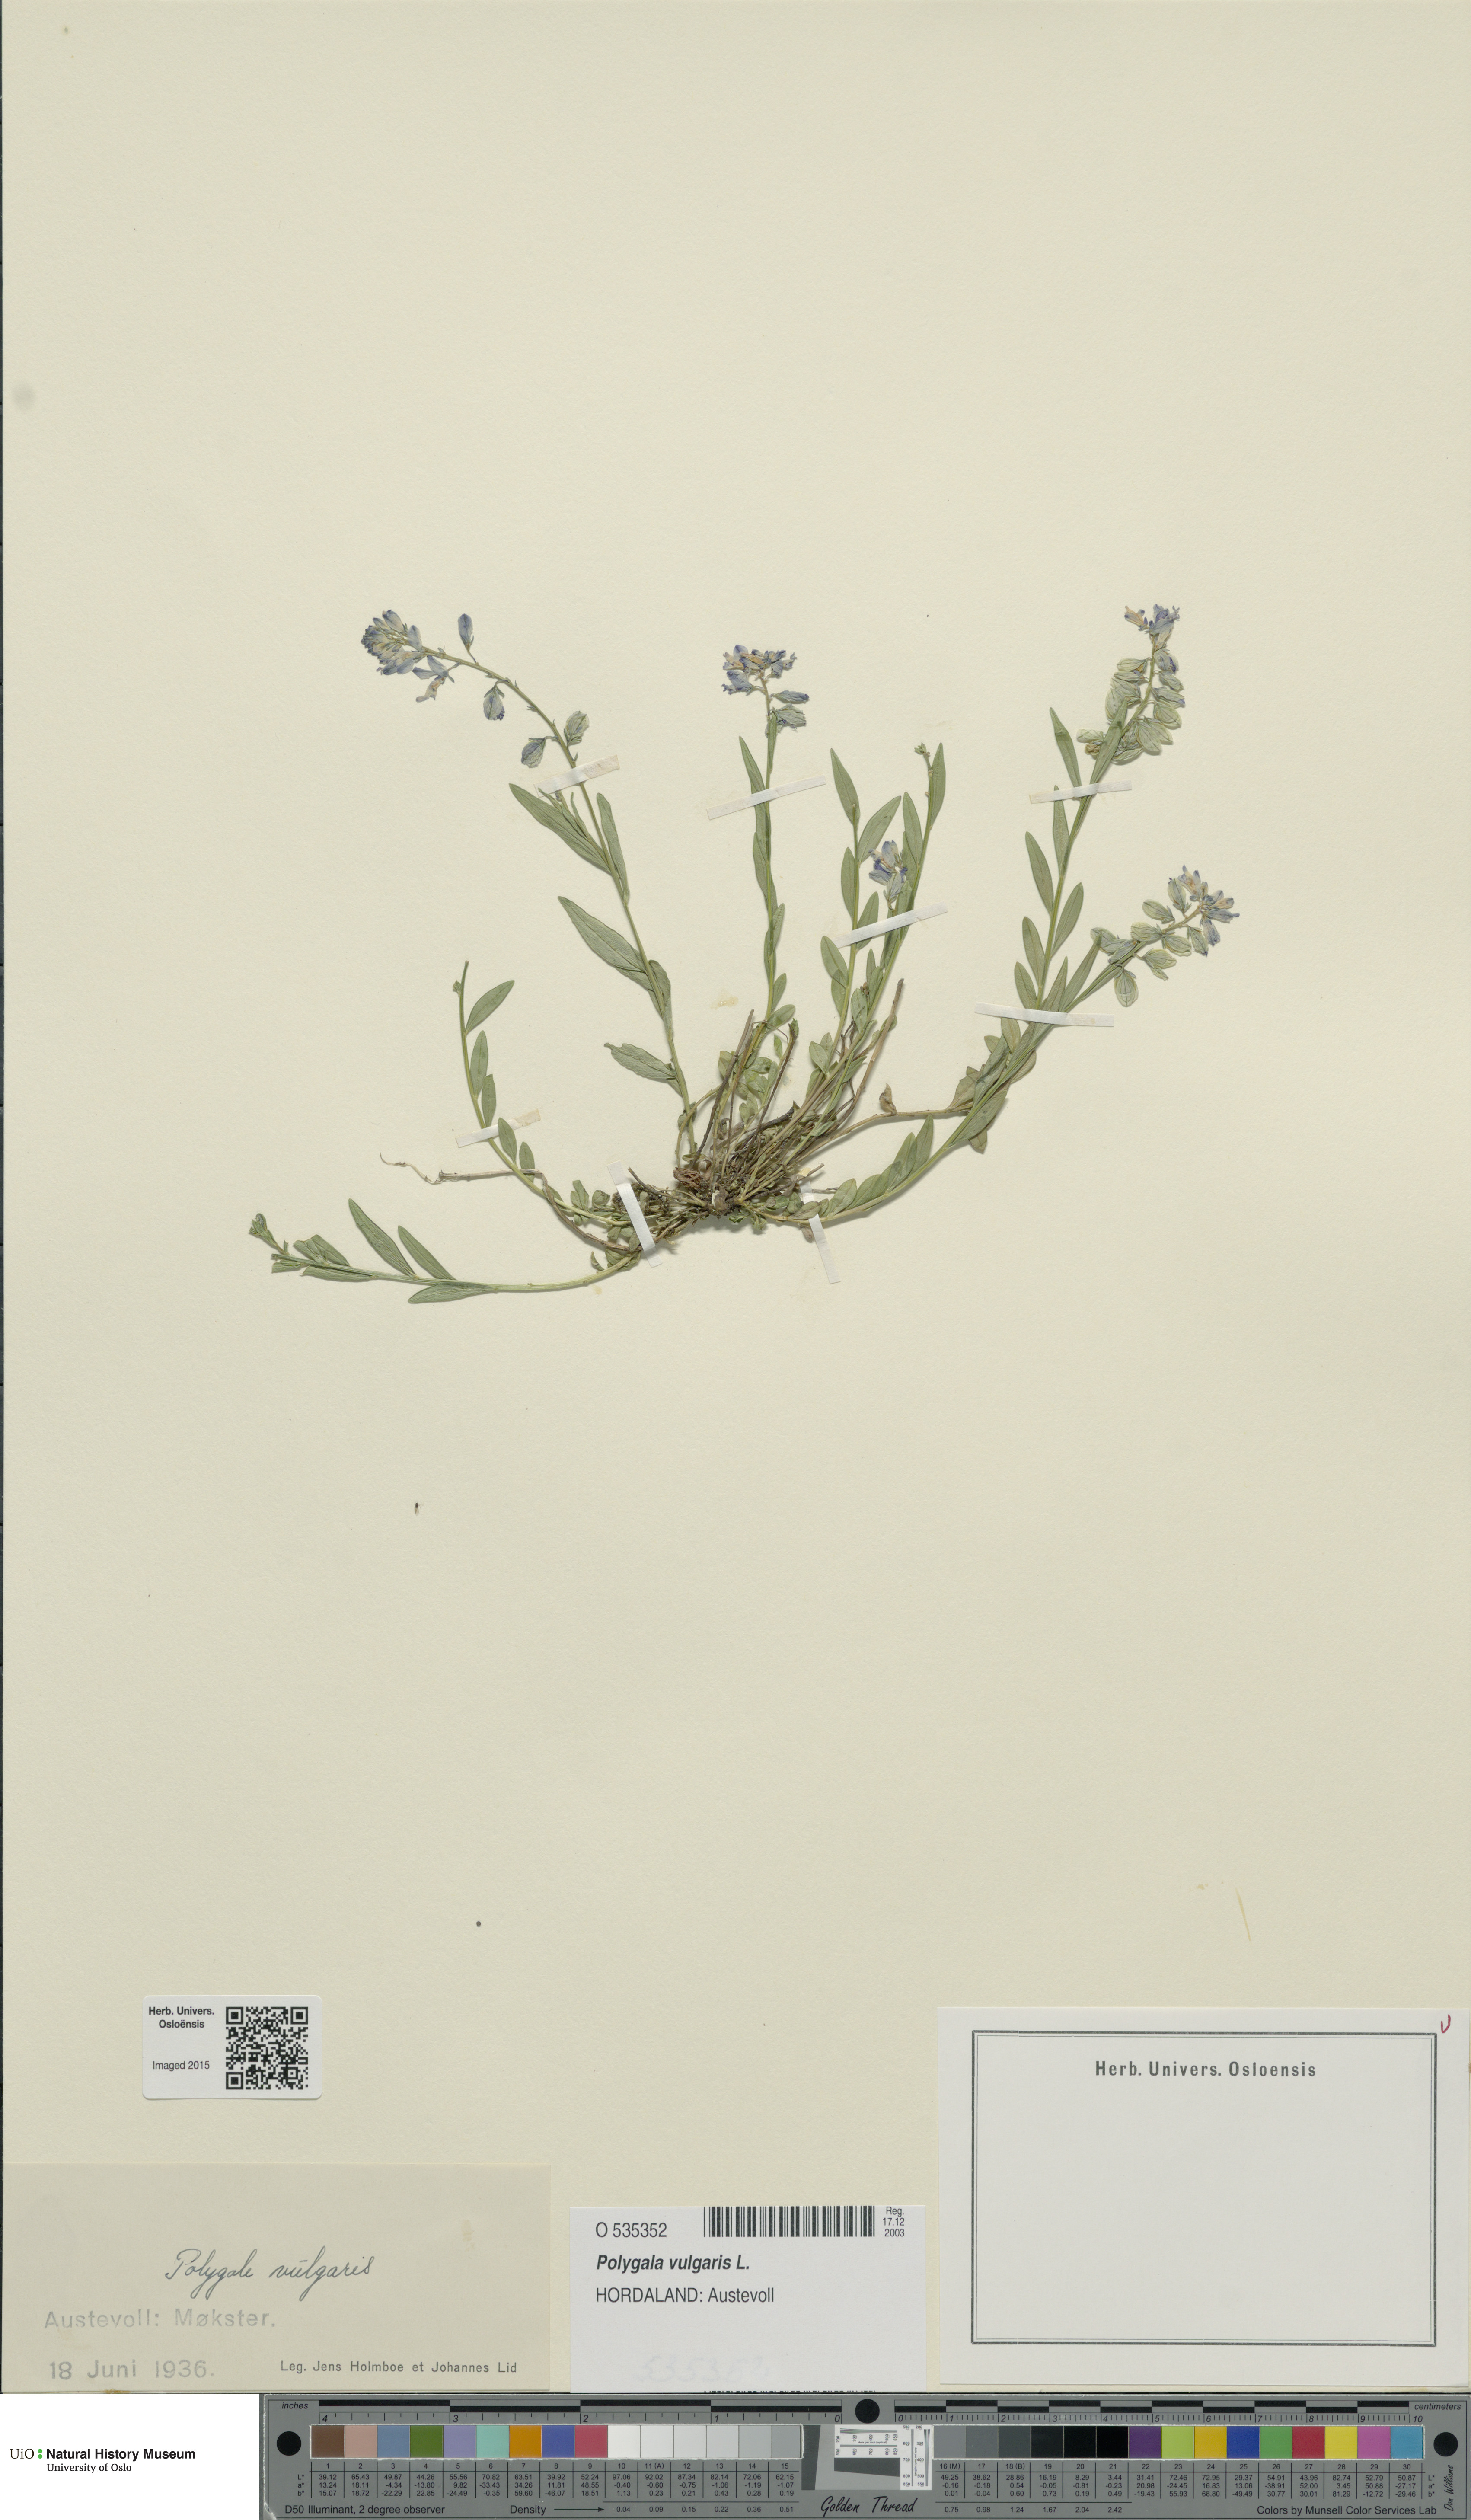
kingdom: Plantae
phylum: Tracheophyta
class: Magnoliopsida
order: Fabales
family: Polygalaceae
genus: Polygala
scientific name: Polygala vulgaris
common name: Common milkwort
